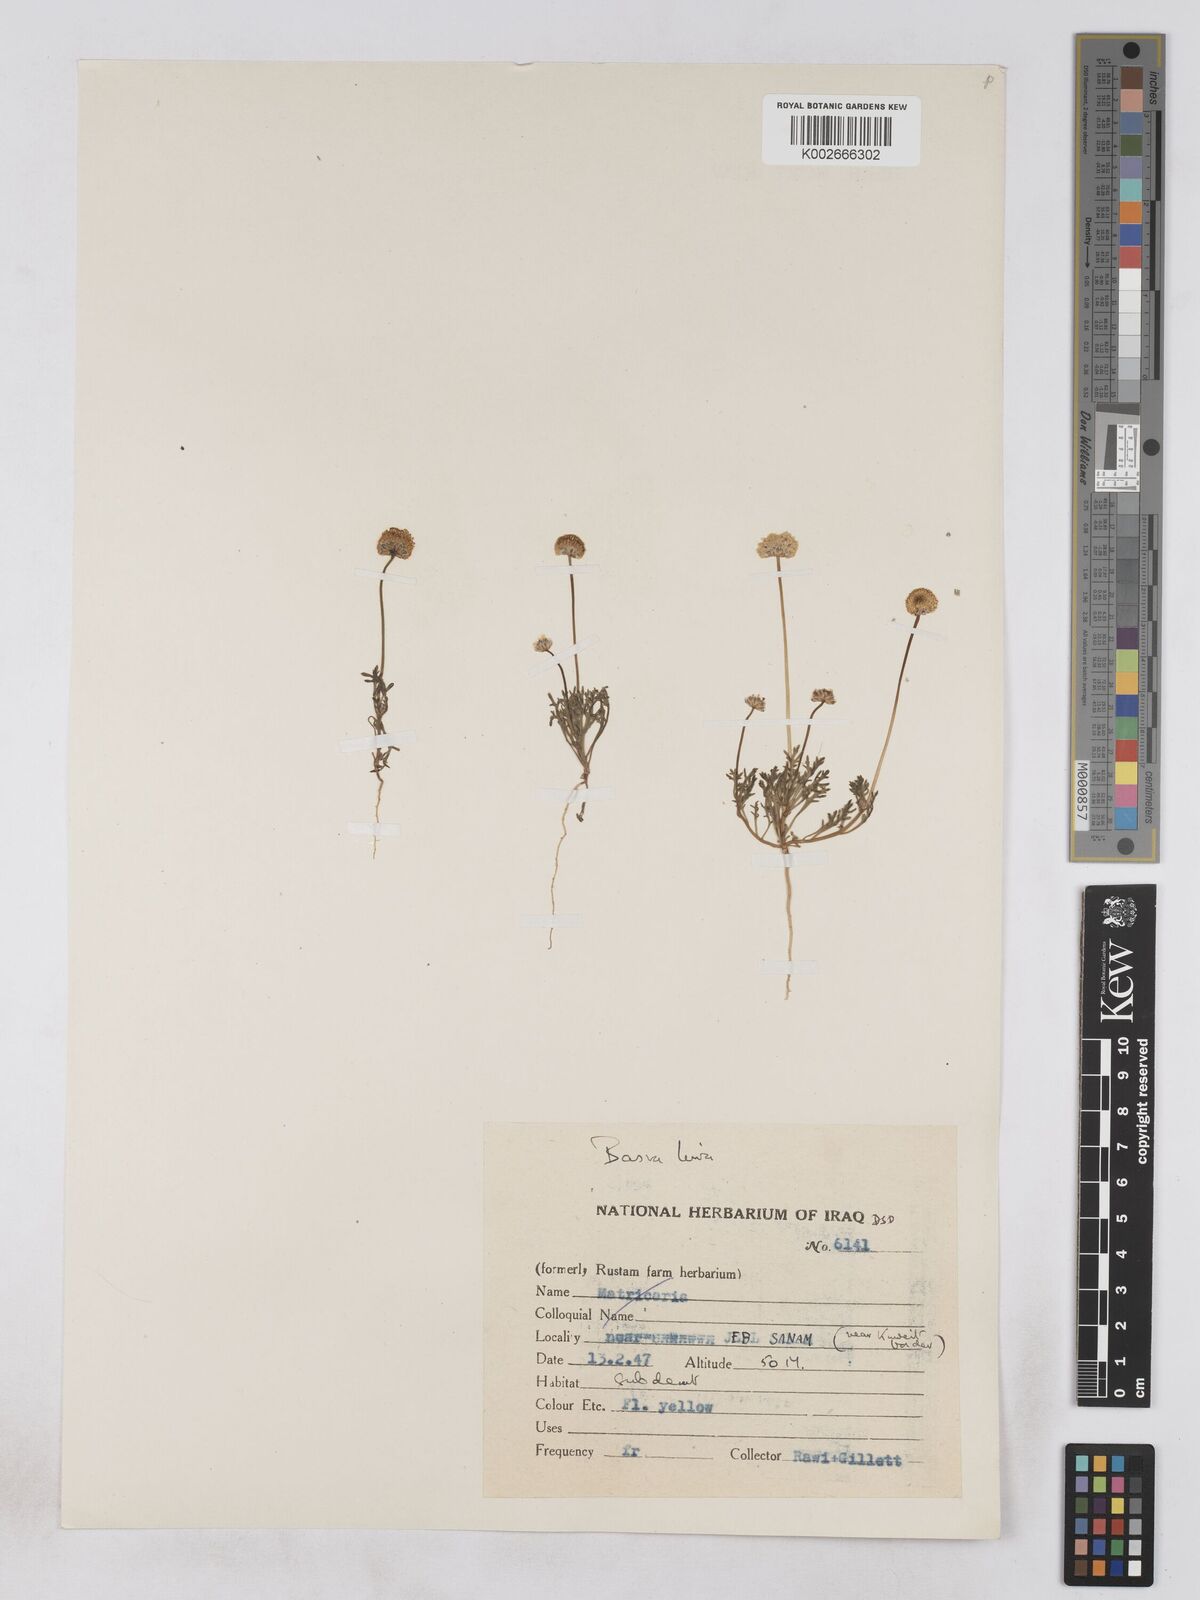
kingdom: Plantae
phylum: Tracheophyta
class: Magnoliopsida
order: Asterales
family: Asteraceae
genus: Otoglyphis
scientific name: Otoglyphis factorovskyi
